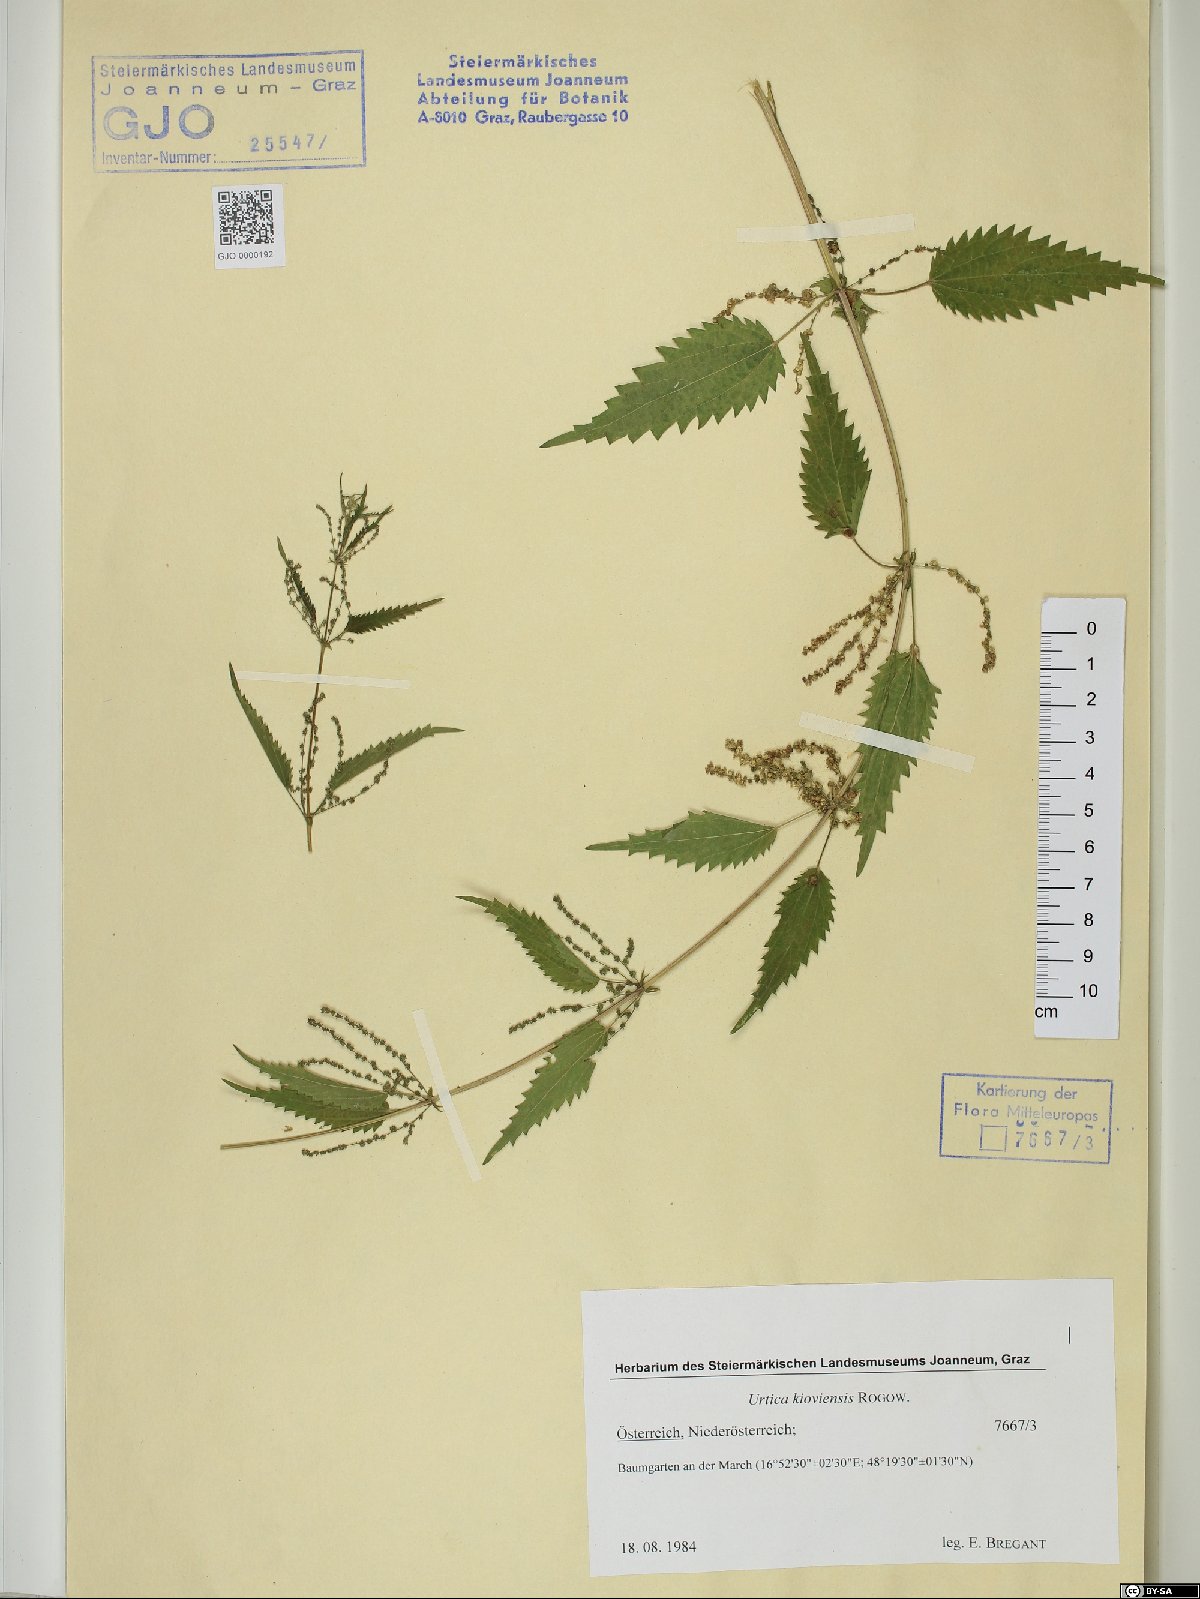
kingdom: Plantae
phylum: Tracheophyta
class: Magnoliopsida
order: Rosales
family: Urticaceae
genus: Urtica
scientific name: Urtica kioviensis
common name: Kievan nettle
